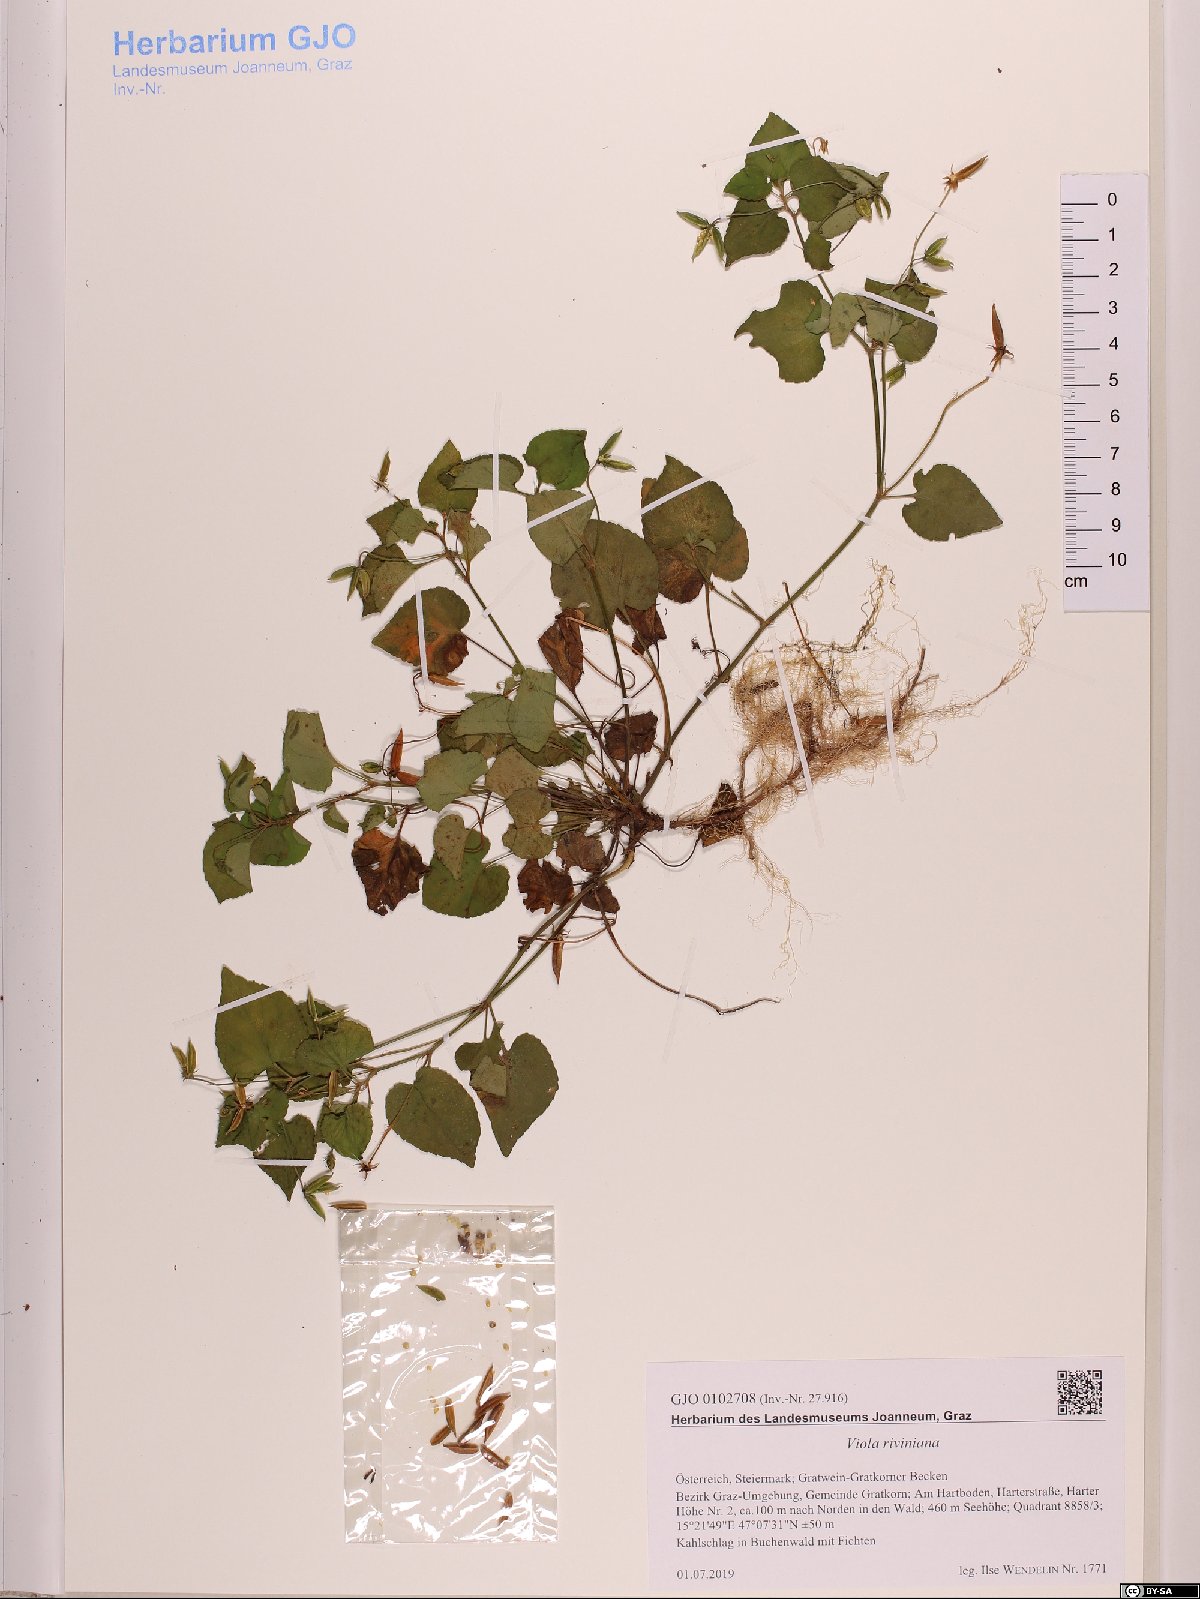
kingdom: Plantae
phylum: Tracheophyta
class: Magnoliopsida
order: Malpighiales
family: Violaceae
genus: Viola
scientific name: Viola riviniana
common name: Common dog-violet
